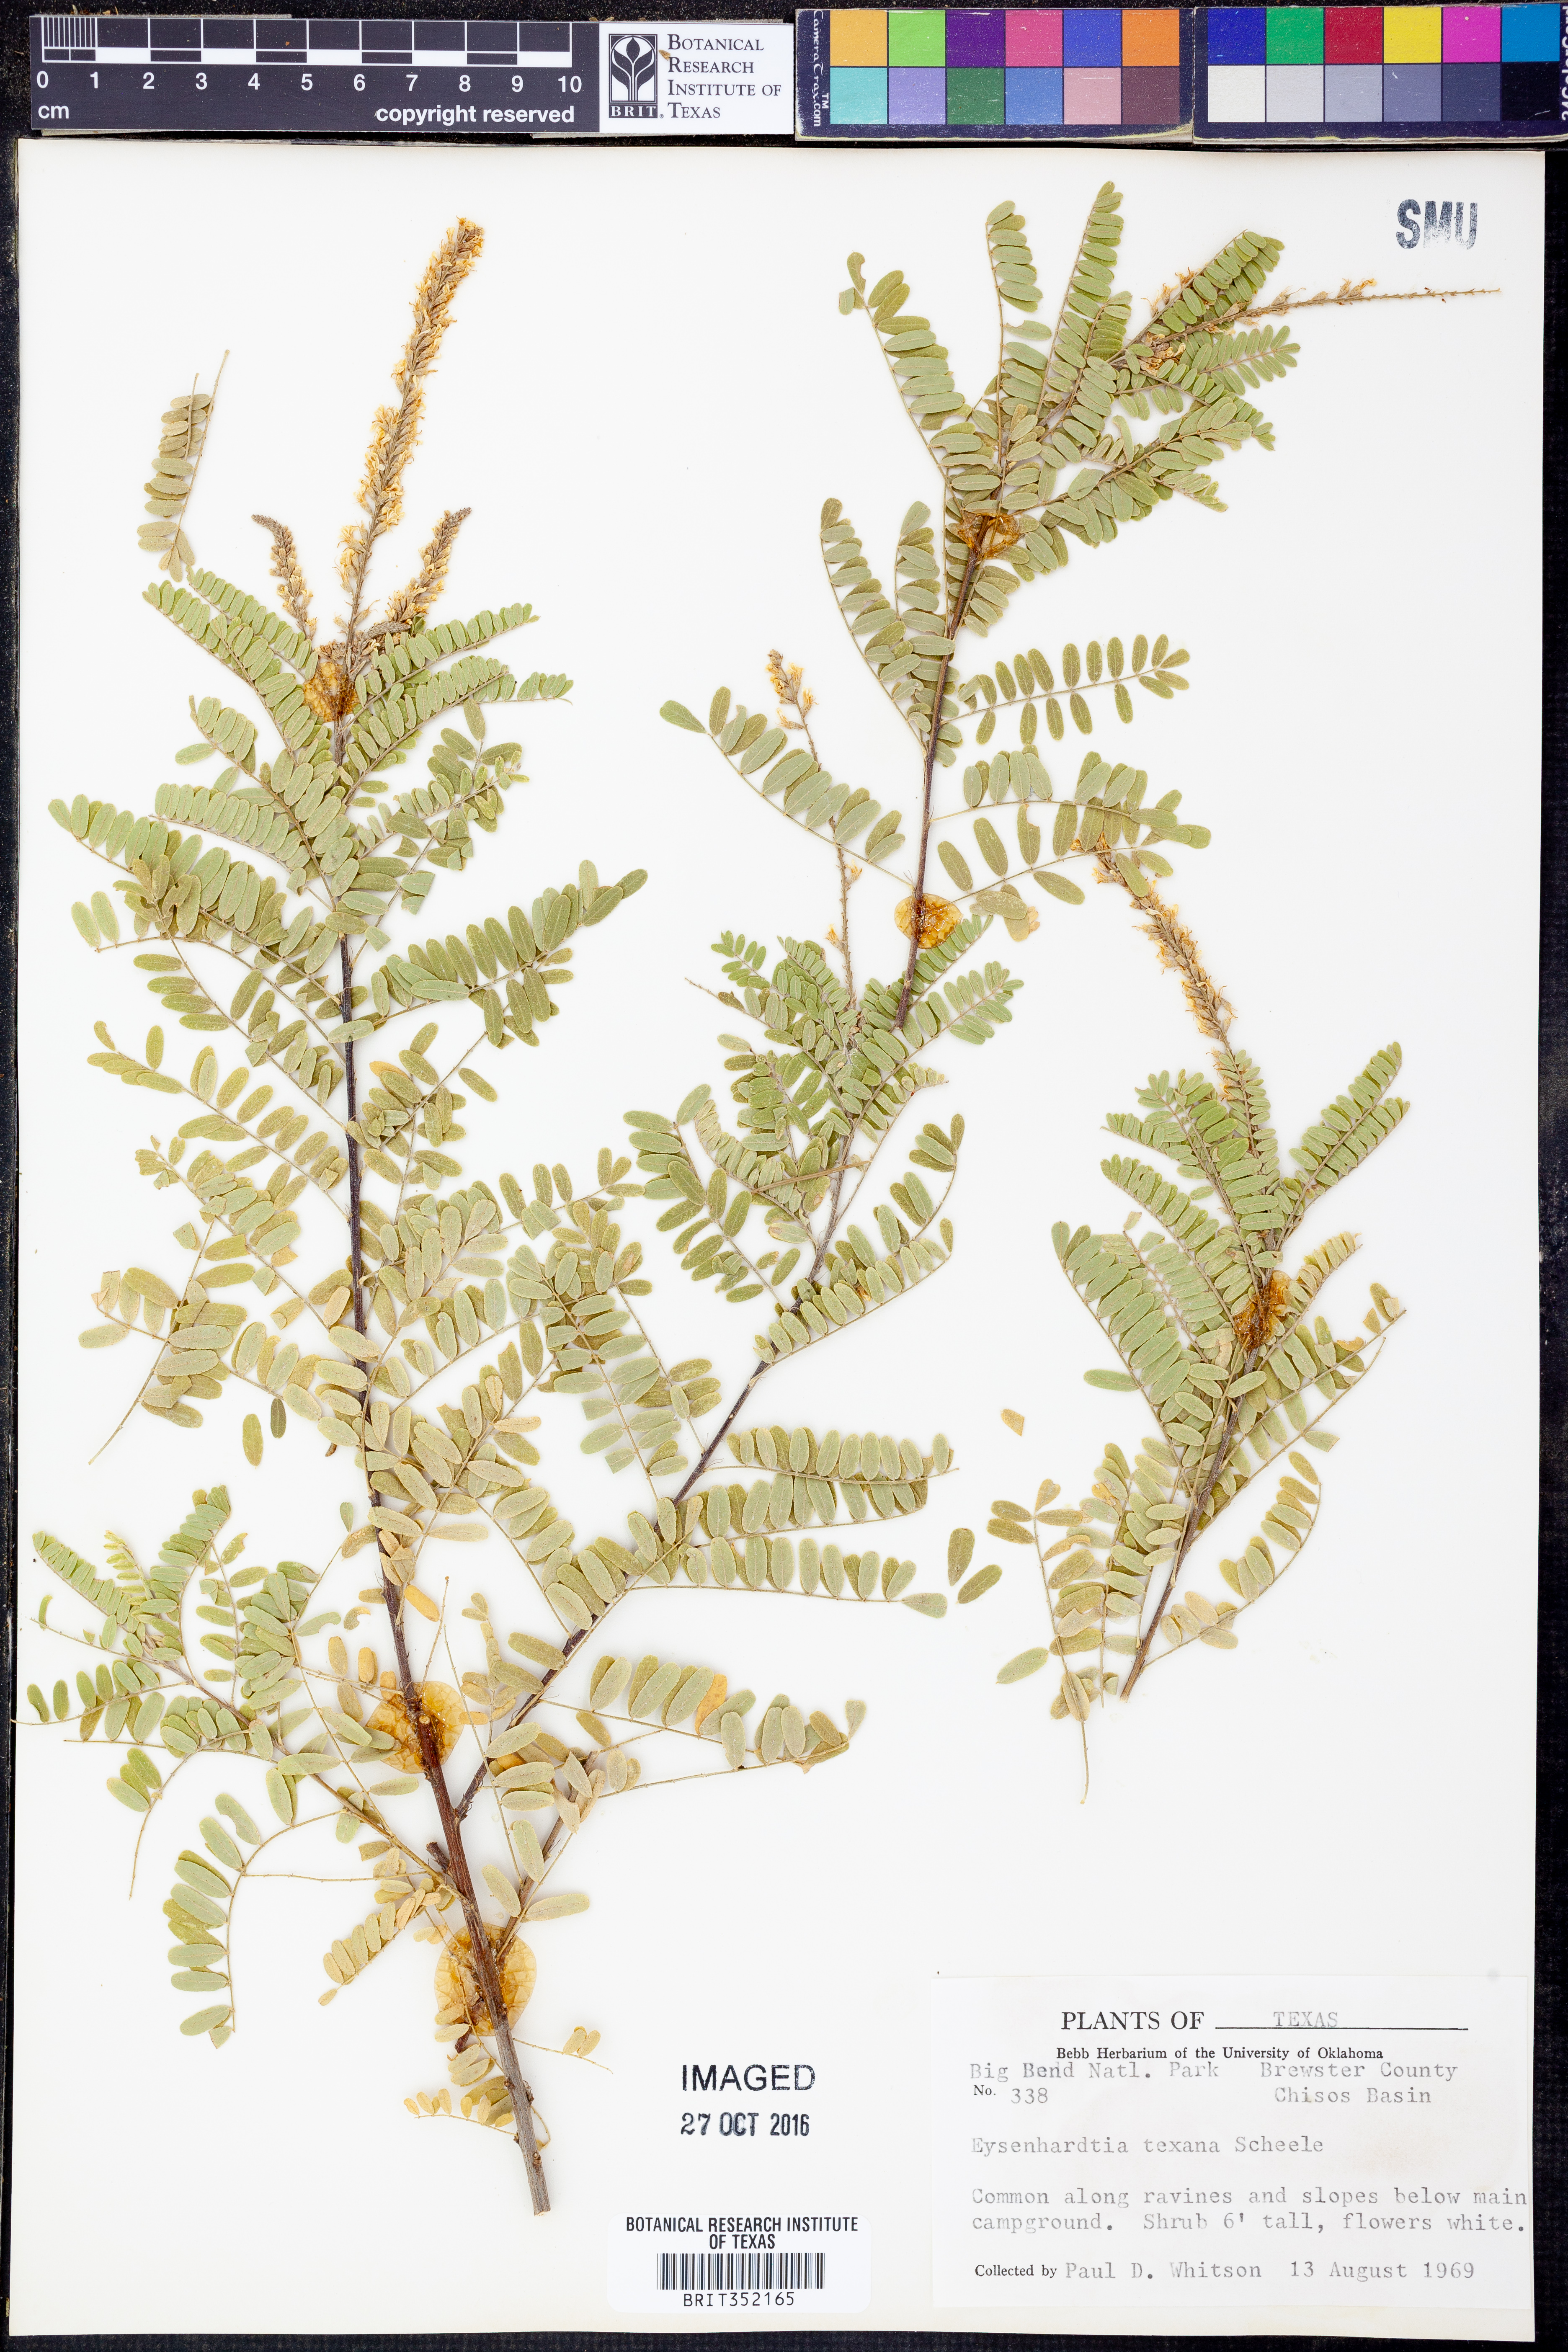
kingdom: Plantae
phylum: Tracheophyta
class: Magnoliopsida
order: Fabales
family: Fabaceae
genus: Eysenhardtia
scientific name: Eysenhardtia texana
